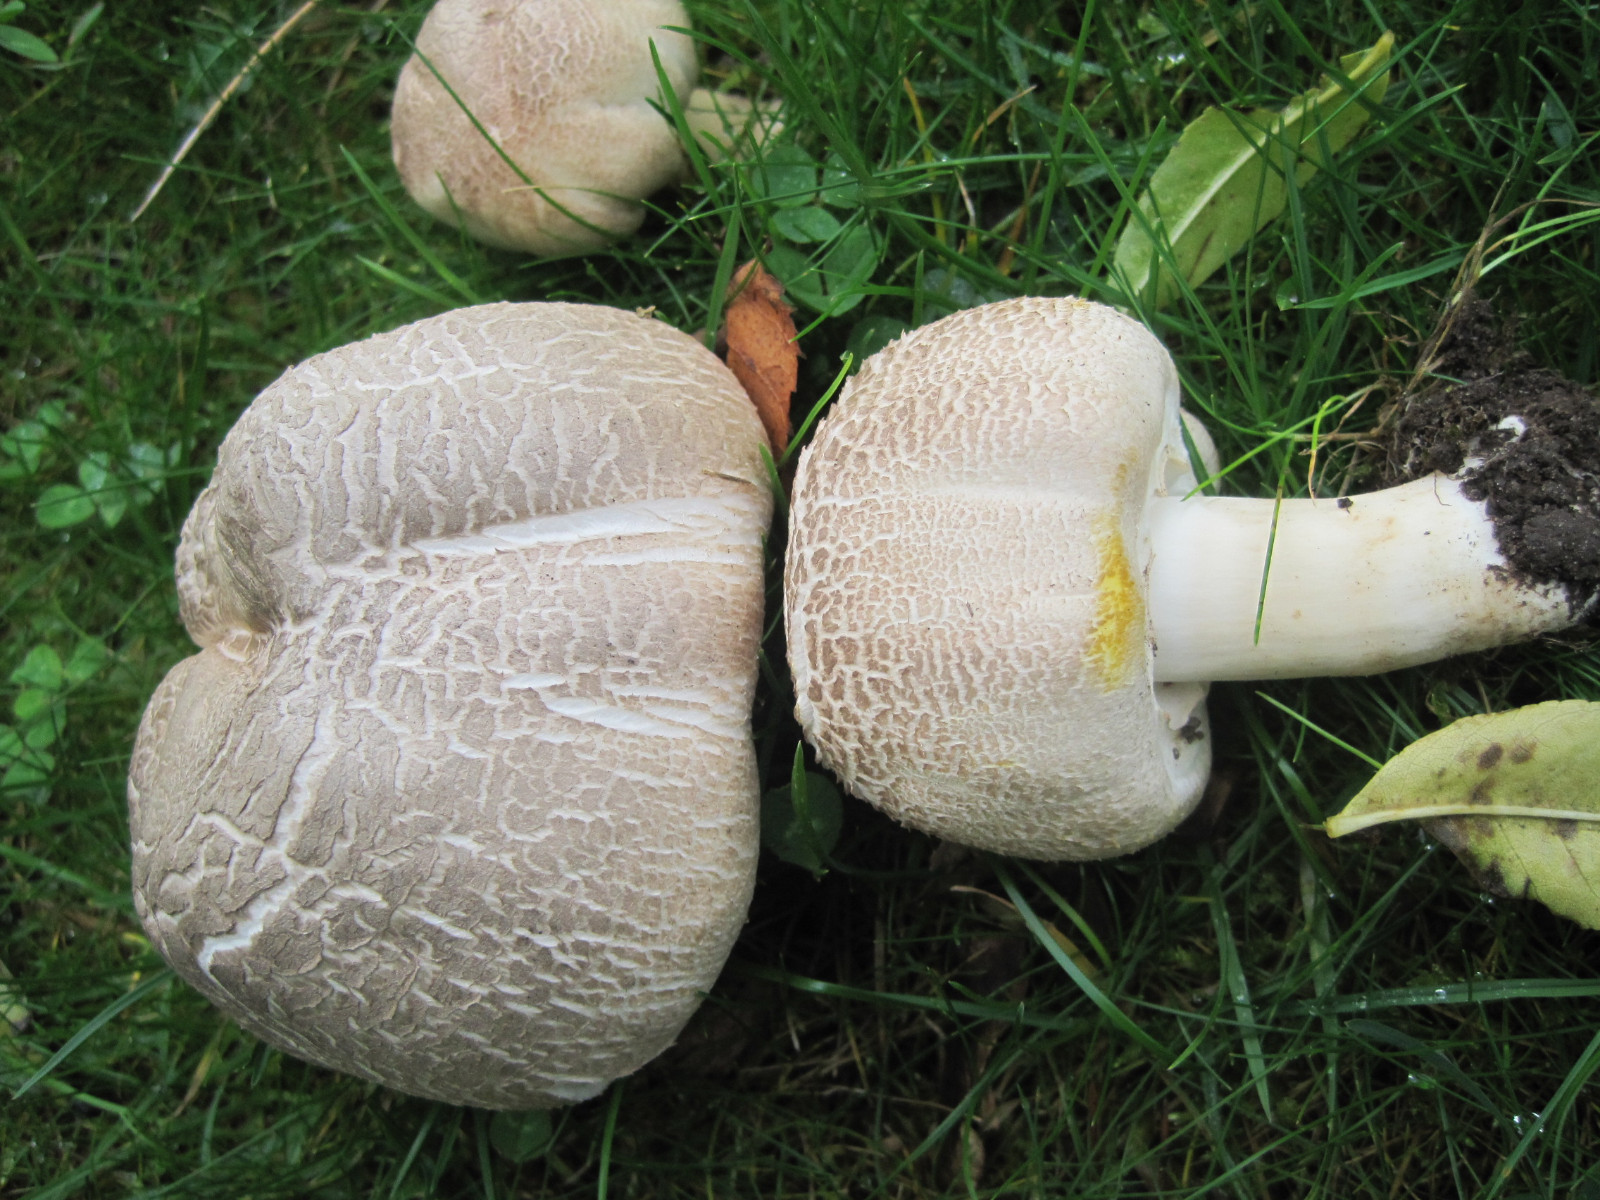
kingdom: Fungi
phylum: Basidiomycota
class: Agaricomycetes
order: Agaricales
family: Agaricaceae
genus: Agaricus
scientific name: Agaricus xanthodermus
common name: karbol-champignon
